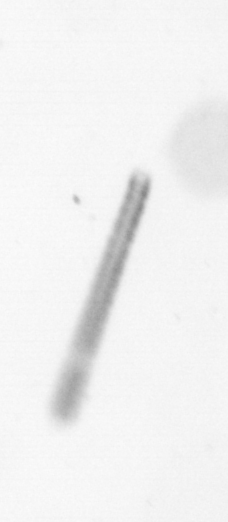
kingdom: Chromista
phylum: Ochrophyta
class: Bacillariophyceae
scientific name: Bacillariophyceae
